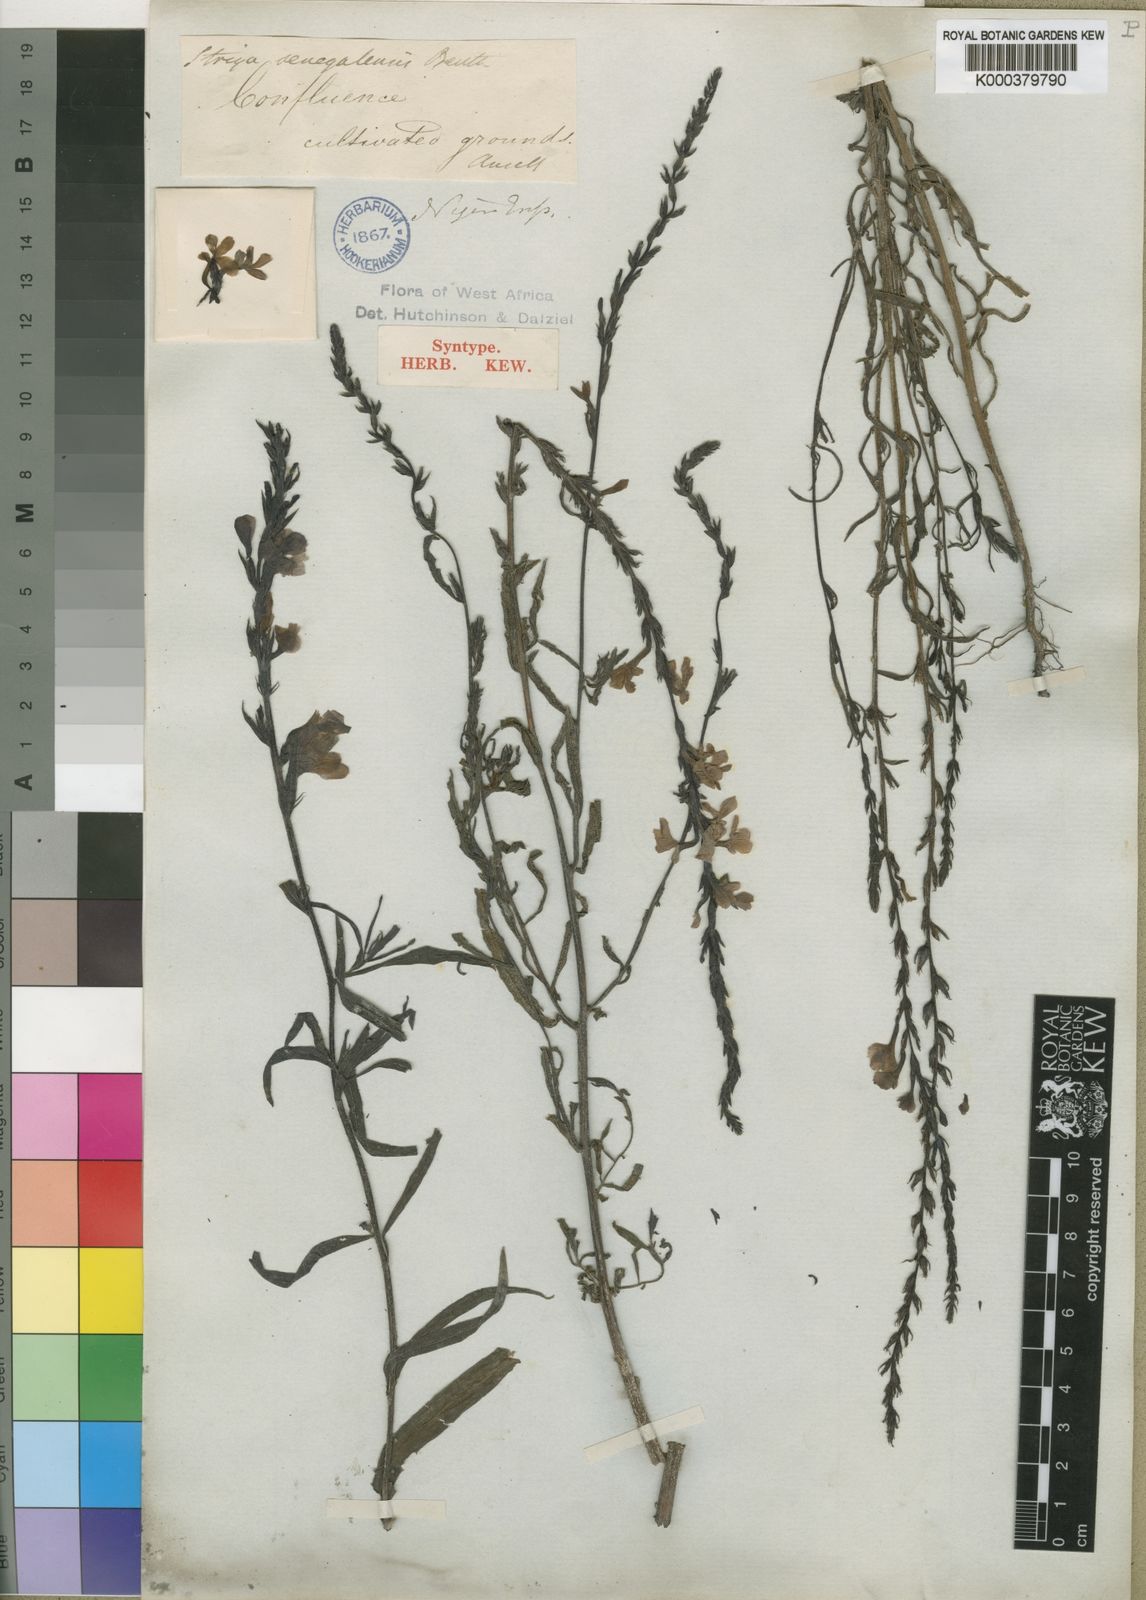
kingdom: Plantae
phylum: Tracheophyta
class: Magnoliopsida
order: Lamiales
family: Orobanchaceae
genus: Striga
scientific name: Striga hermonthica
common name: Purple witchweed
